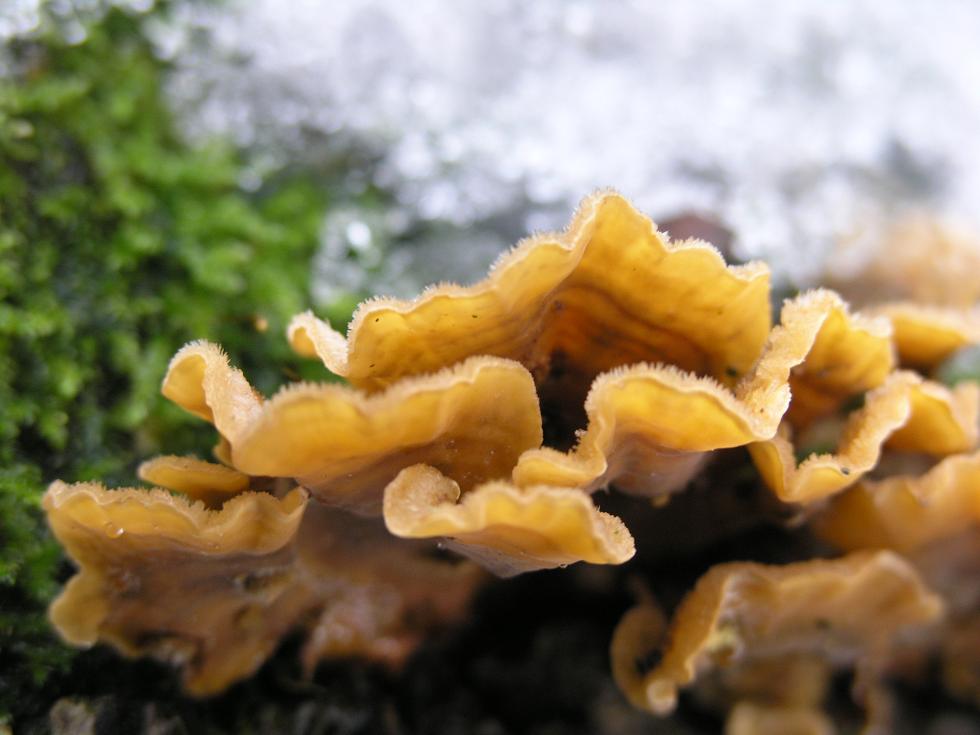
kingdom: Fungi
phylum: Basidiomycota
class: Agaricomycetes
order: Russulales
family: Stereaceae
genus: Stereum
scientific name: Stereum hirsutum
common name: håret lædersvamp
